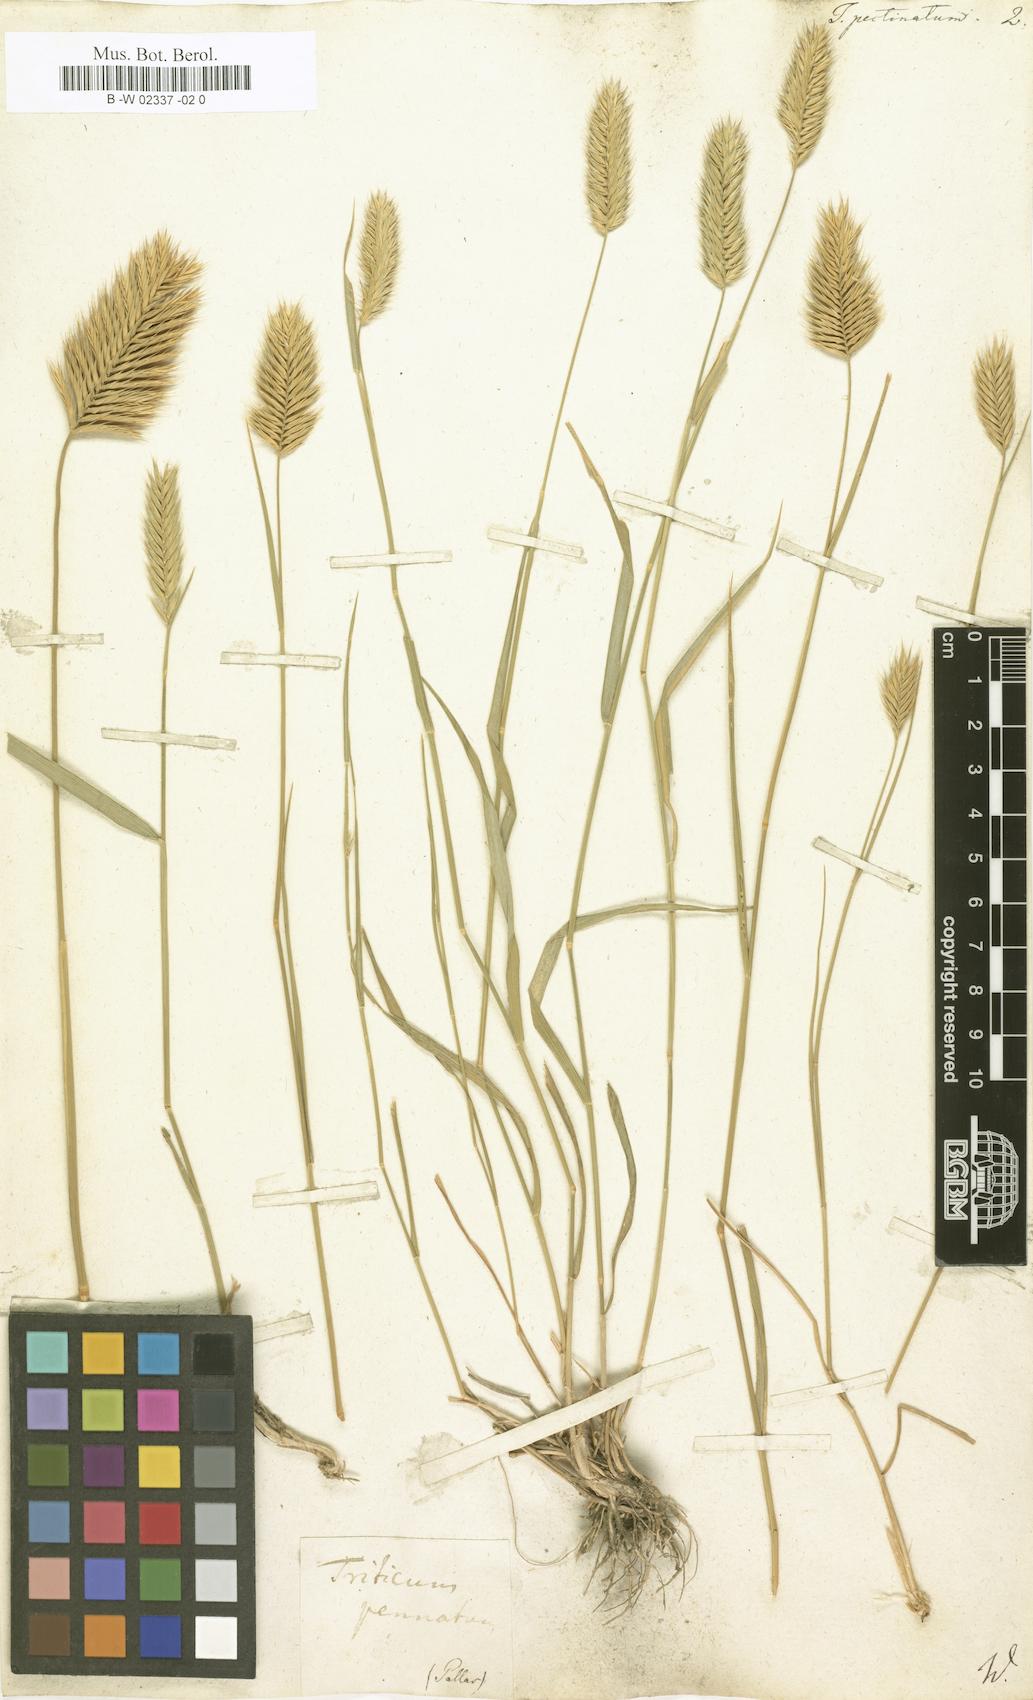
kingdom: Plantae
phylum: Tracheophyta
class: Liliopsida
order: Poales
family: Poaceae
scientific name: Poaceae
